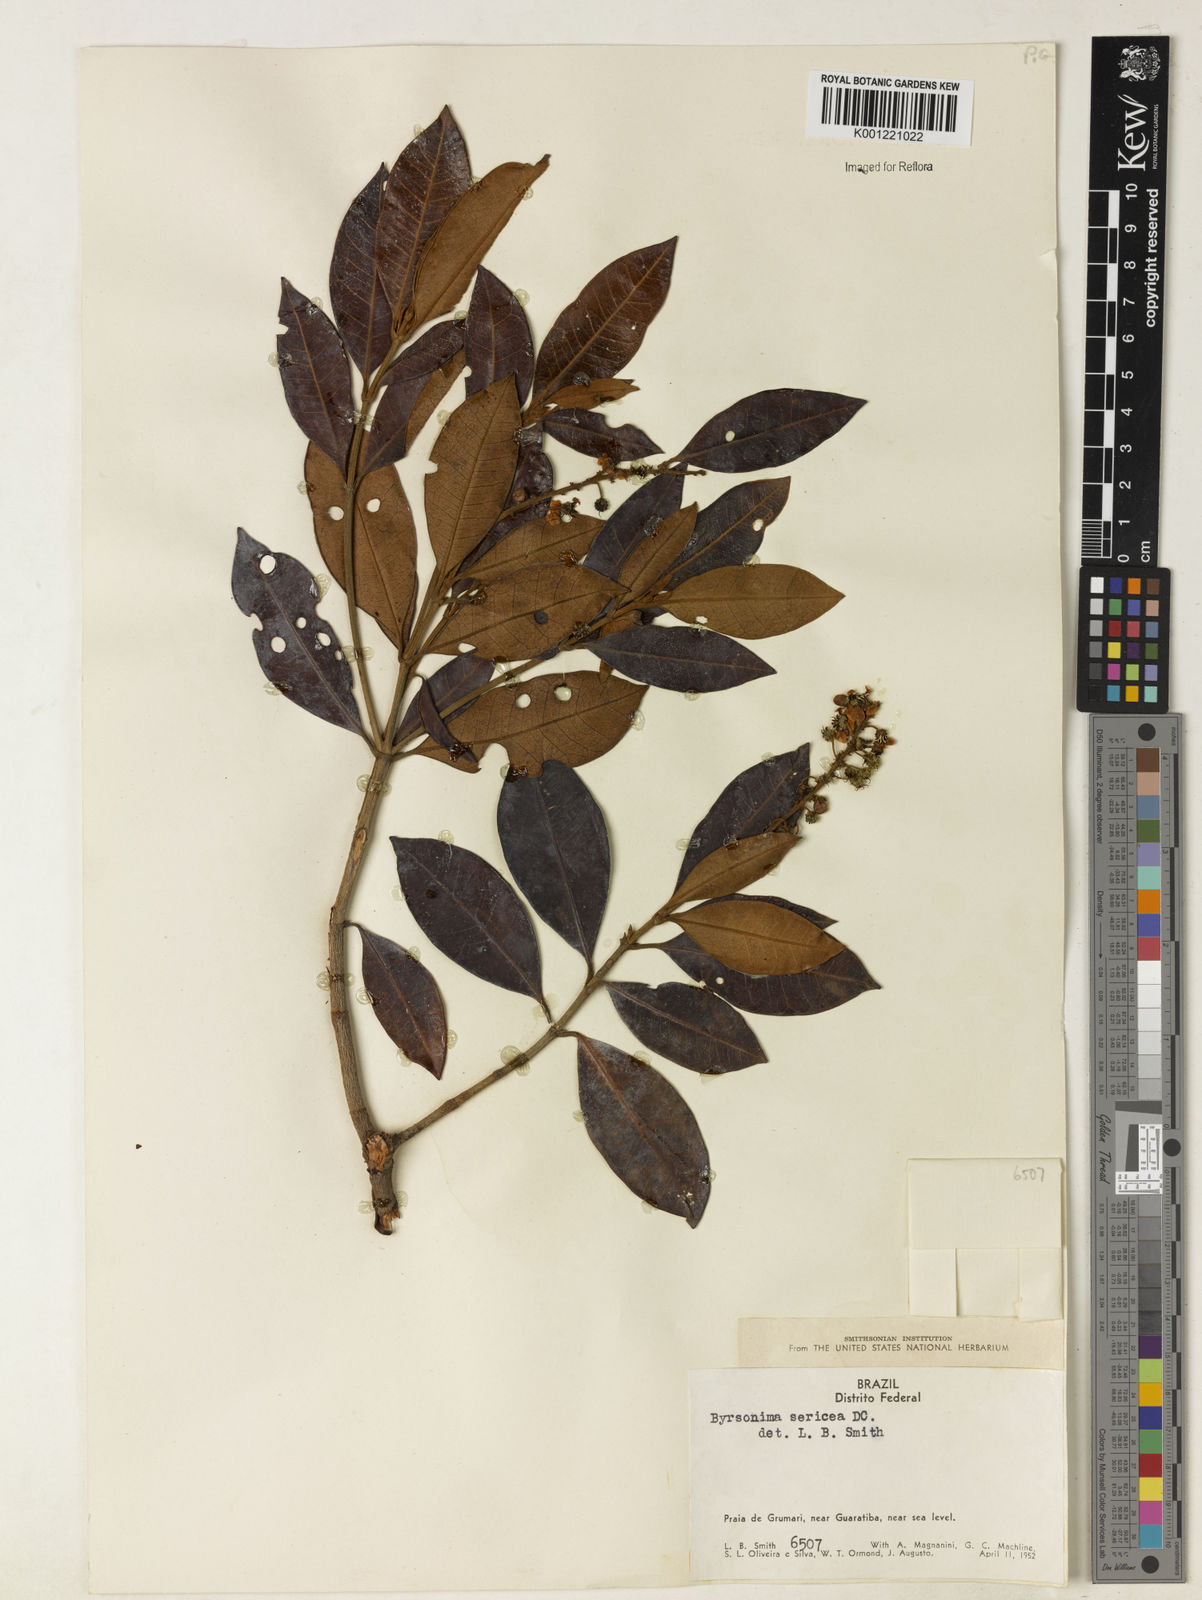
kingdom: Plantae
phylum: Tracheophyta
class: Magnoliopsida
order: Malpighiales
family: Malpighiaceae
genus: Byrsonima
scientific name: Byrsonima sericea
